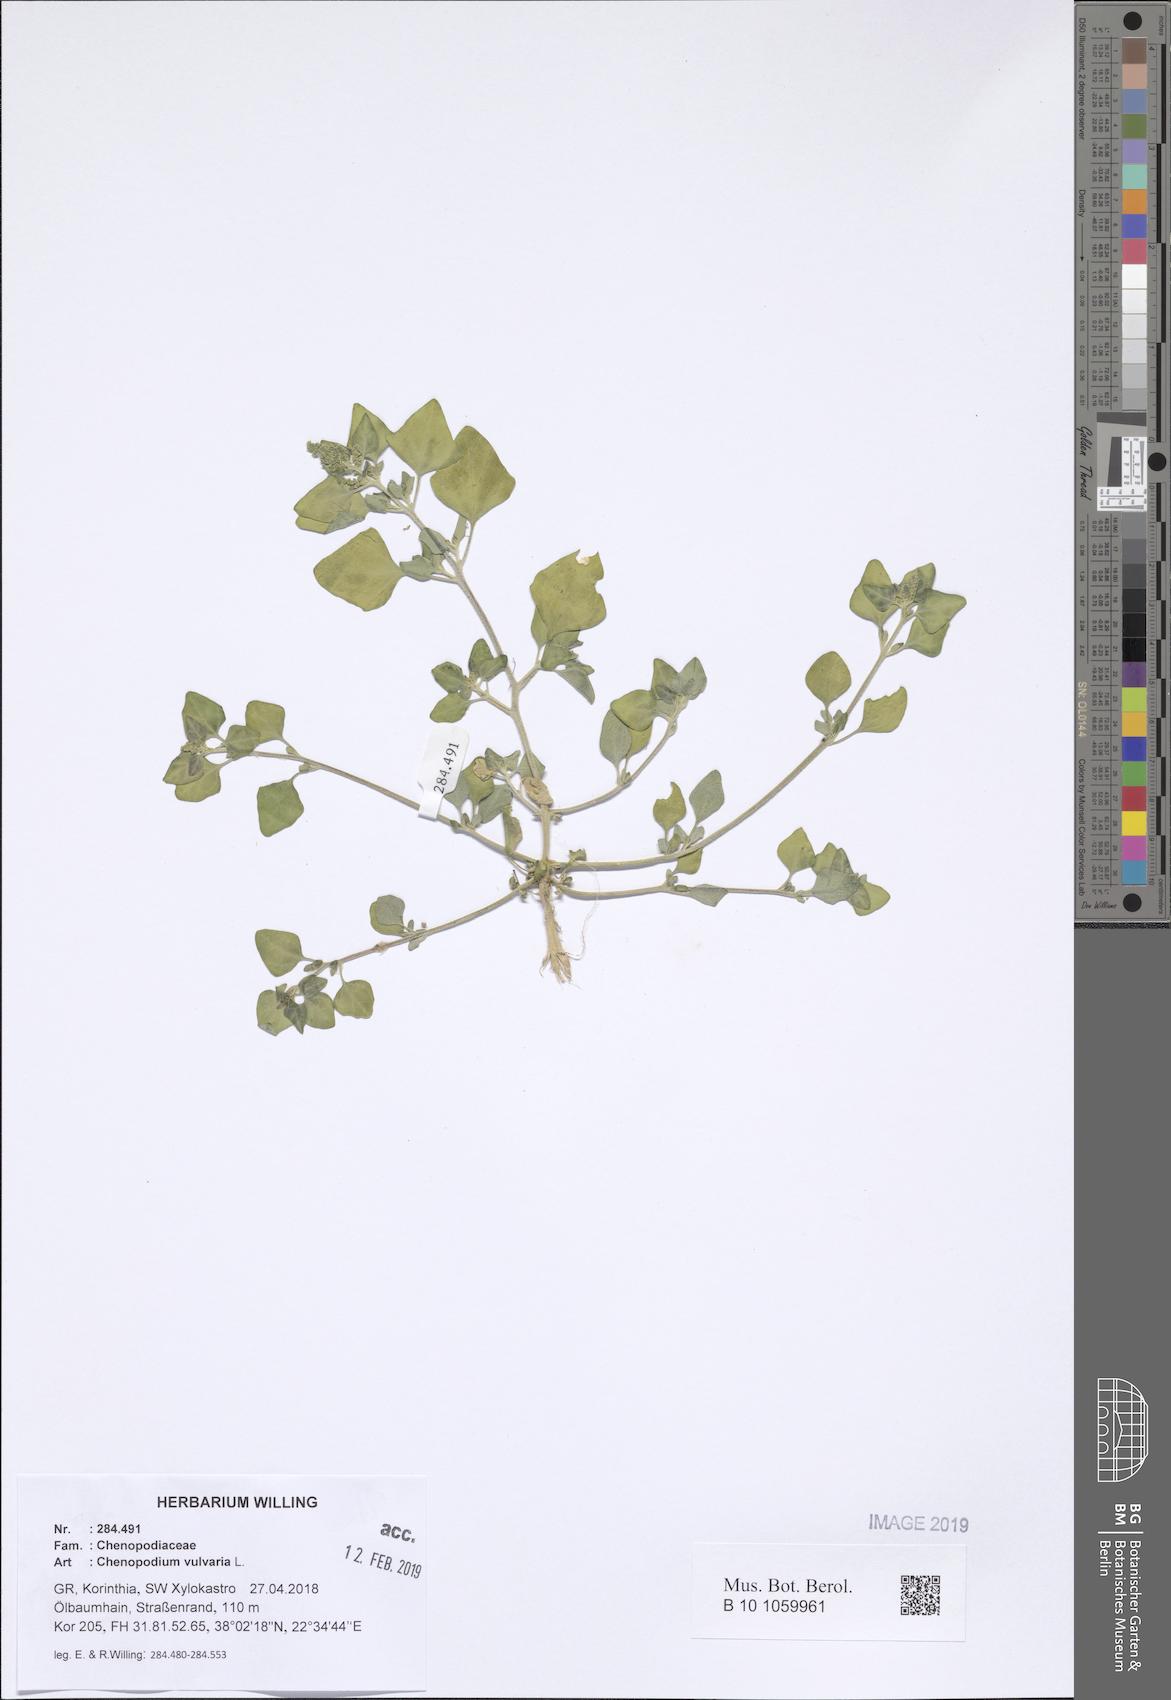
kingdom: Plantae
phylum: Tracheophyta
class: Magnoliopsida
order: Caryophyllales
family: Amaranthaceae
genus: Chenopodium
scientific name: Chenopodium vulvaria
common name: Stinking goosefoot
